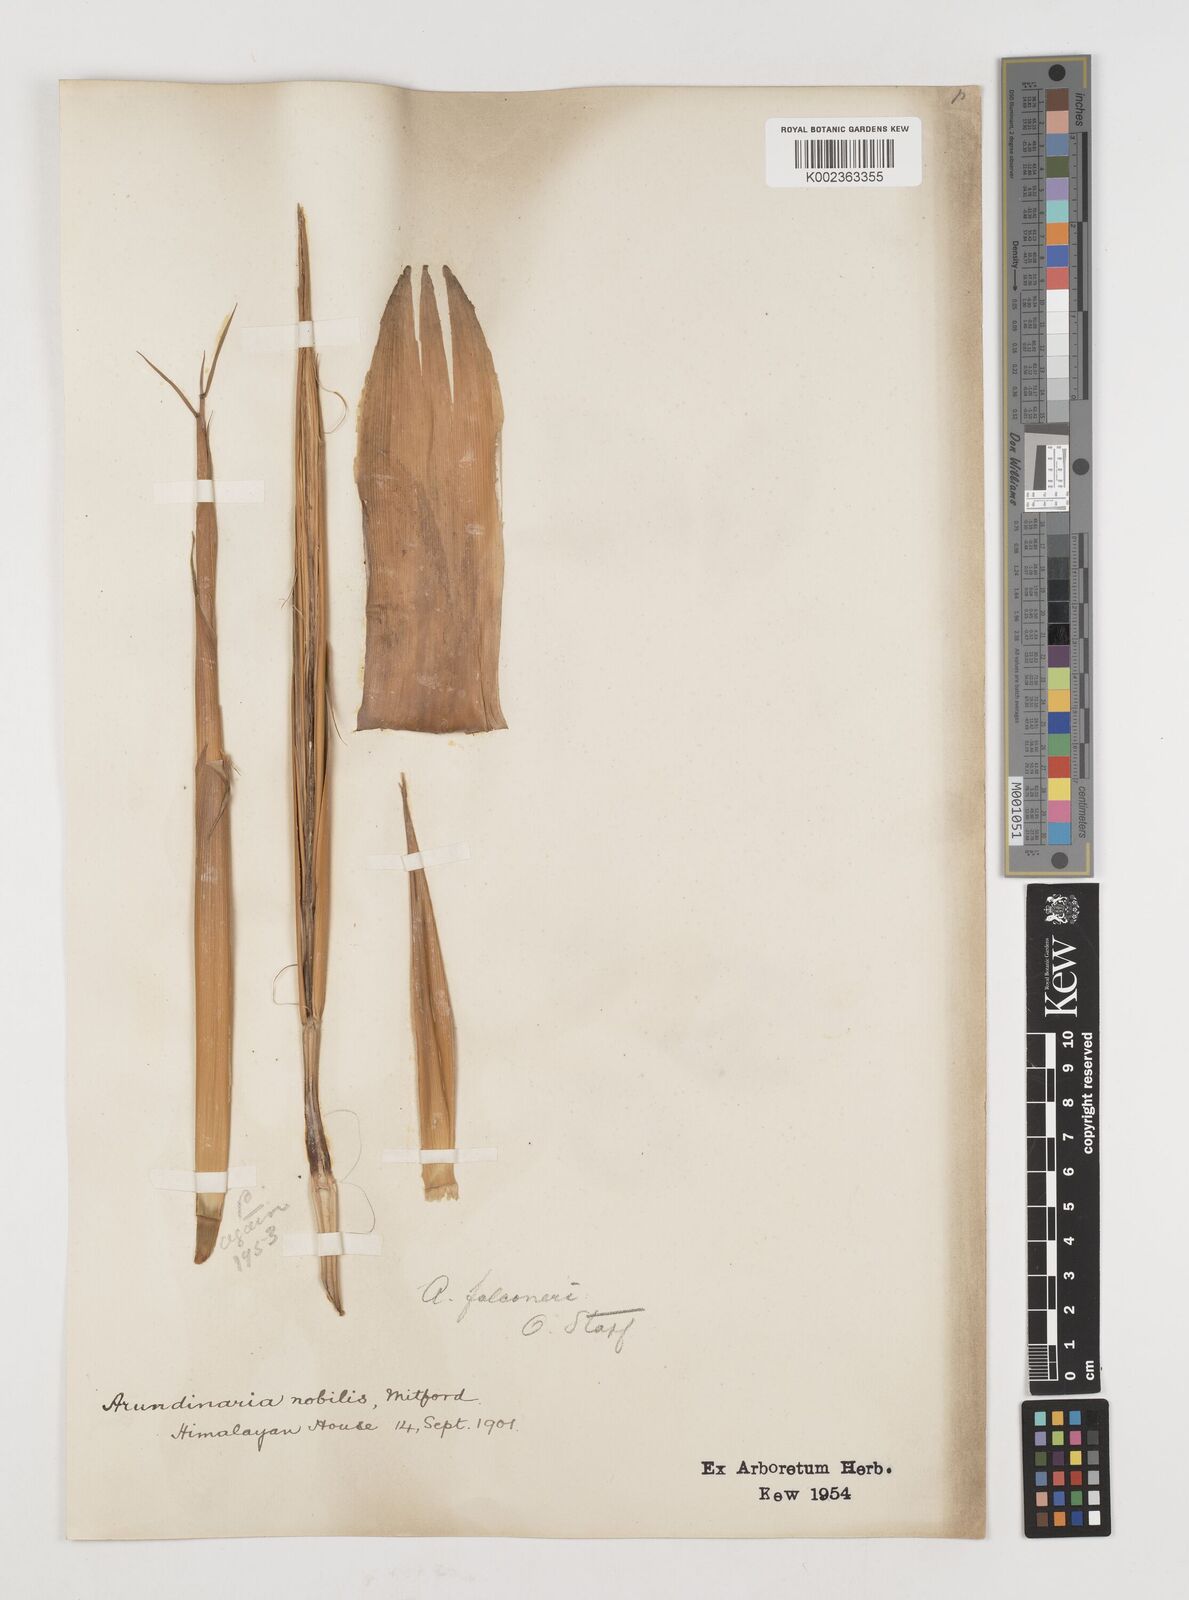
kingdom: Plantae
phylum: Tracheophyta
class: Liliopsida
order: Poales
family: Poaceae
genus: Himalayacalamus
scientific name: Himalayacalamus falconeri
